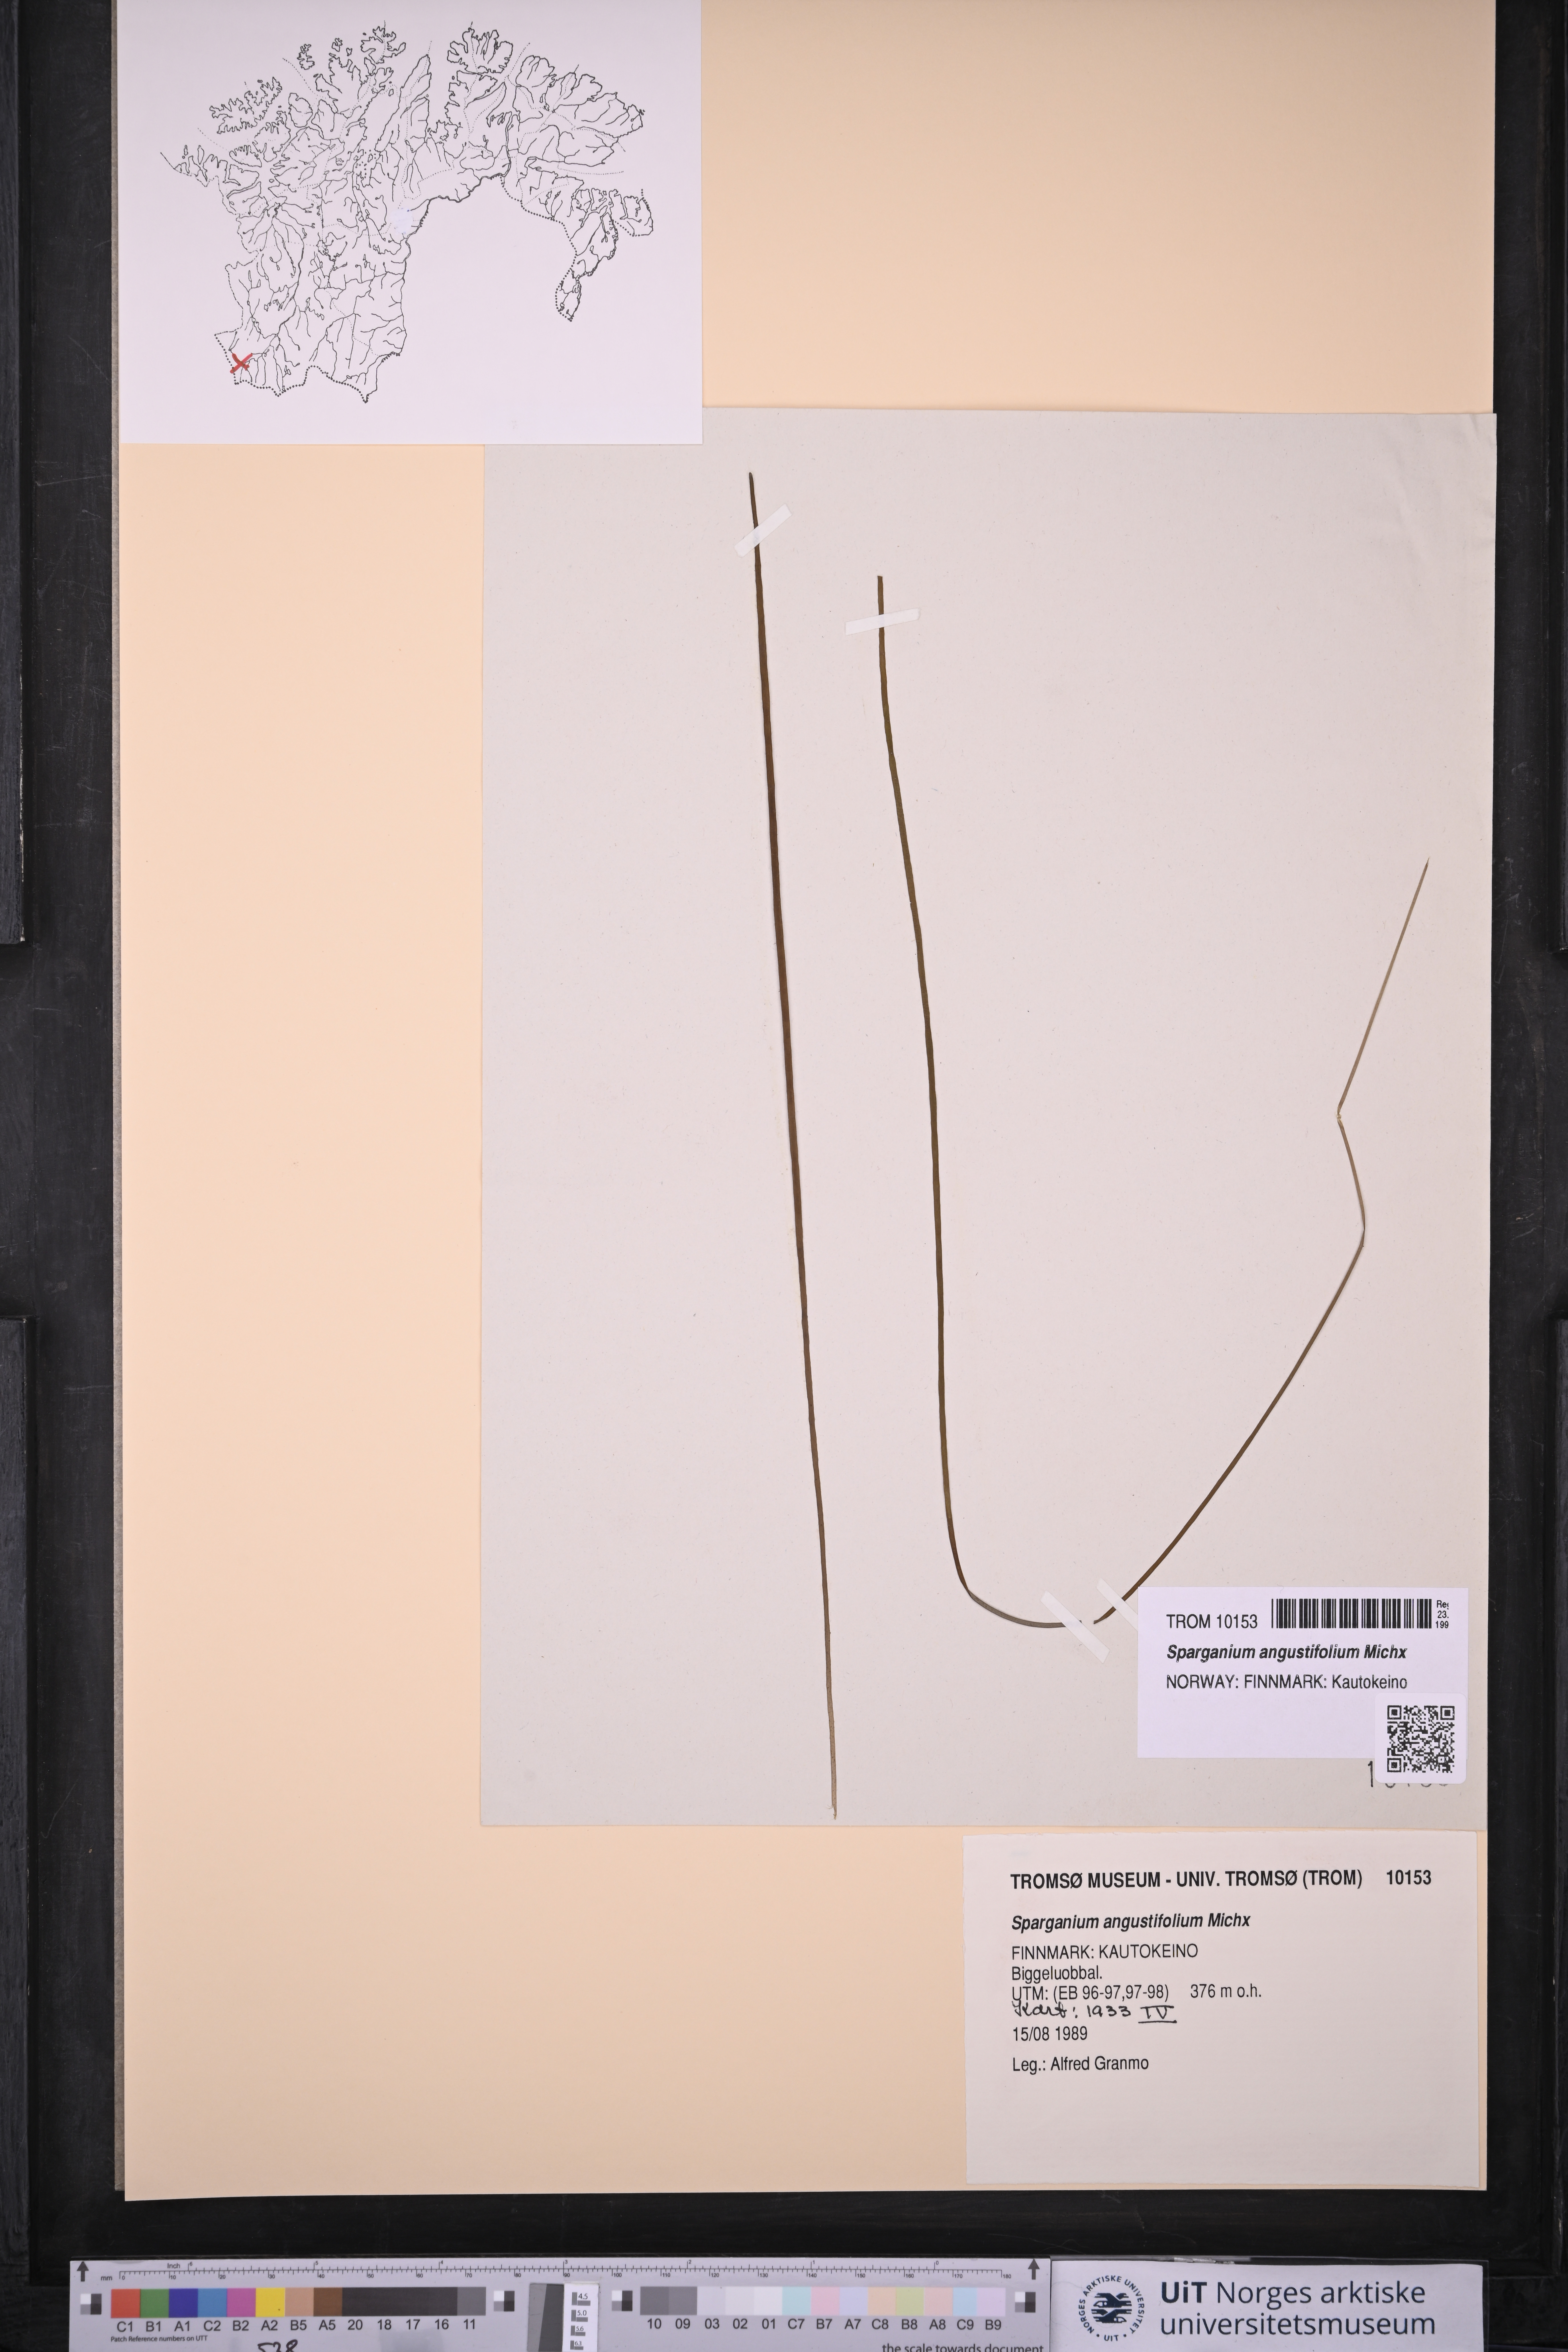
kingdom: Plantae
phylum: Tracheophyta
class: Liliopsida
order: Poales
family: Typhaceae
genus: Sparganium
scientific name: Sparganium angustifolium
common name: Floating bur-reed
